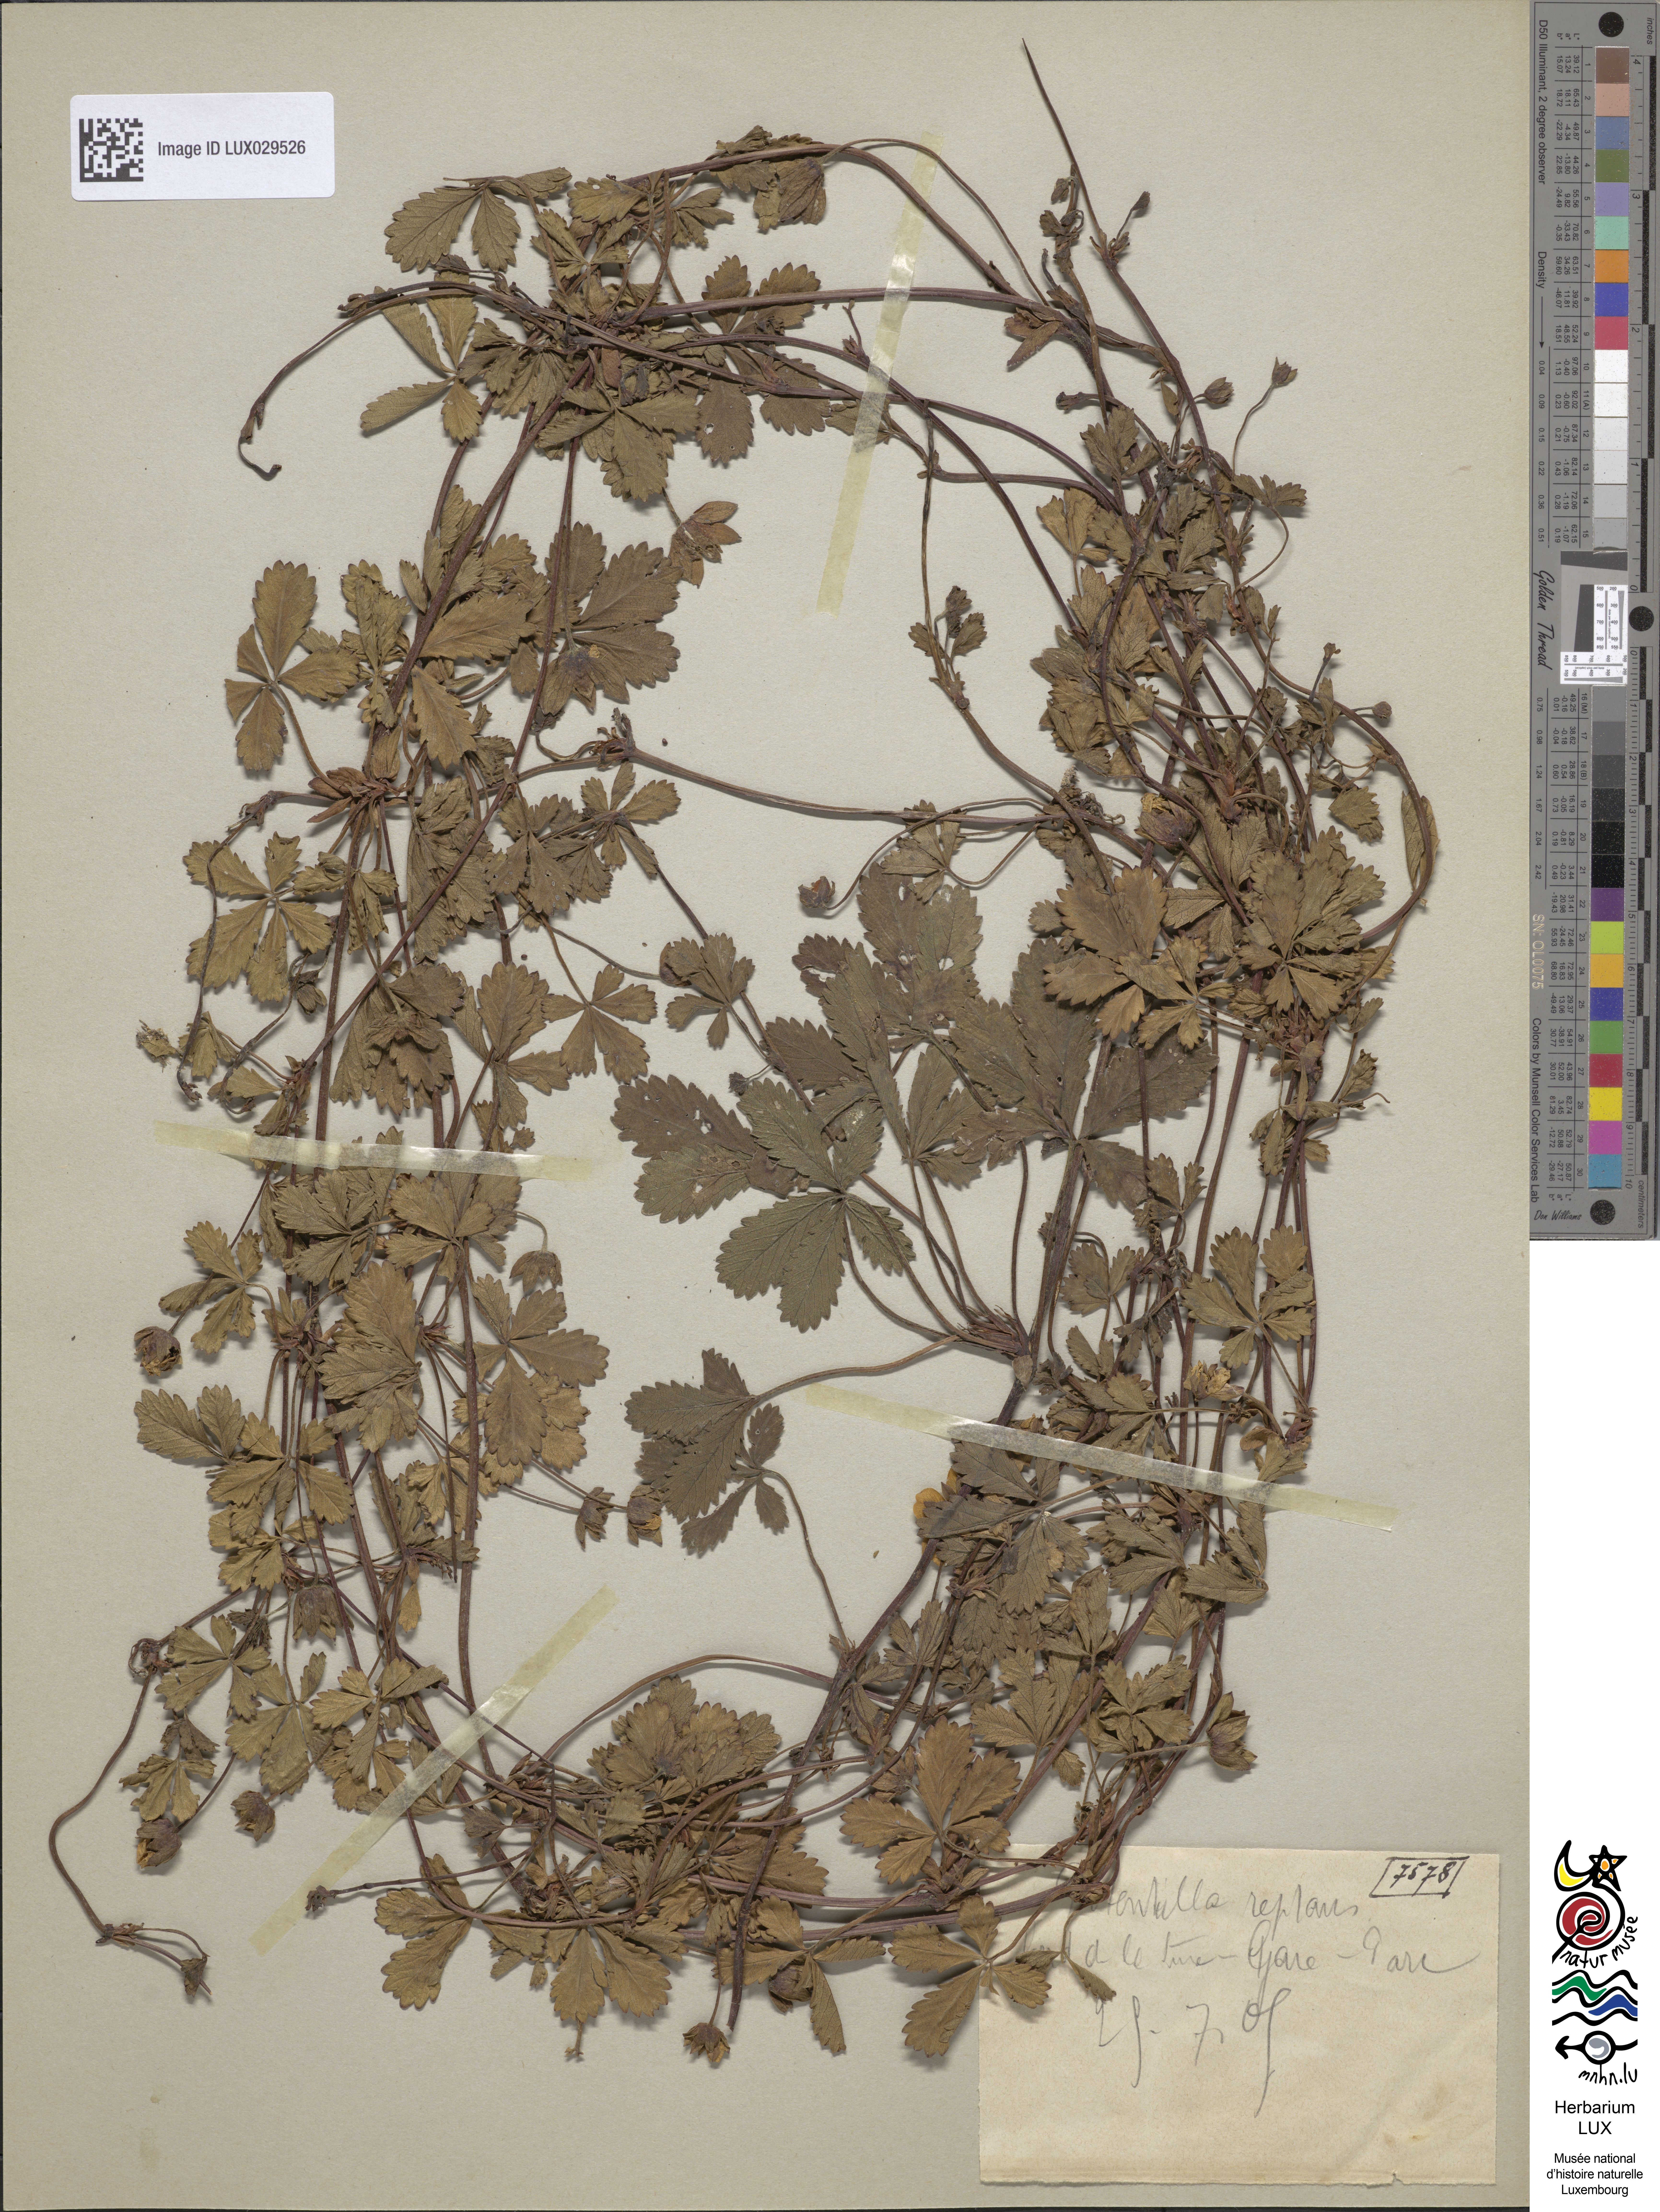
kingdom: Plantae
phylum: Tracheophyta
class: Magnoliopsida
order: Rosales
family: Rosaceae
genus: Potentilla
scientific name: Potentilla reptans
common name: Creeping cinquefoil
